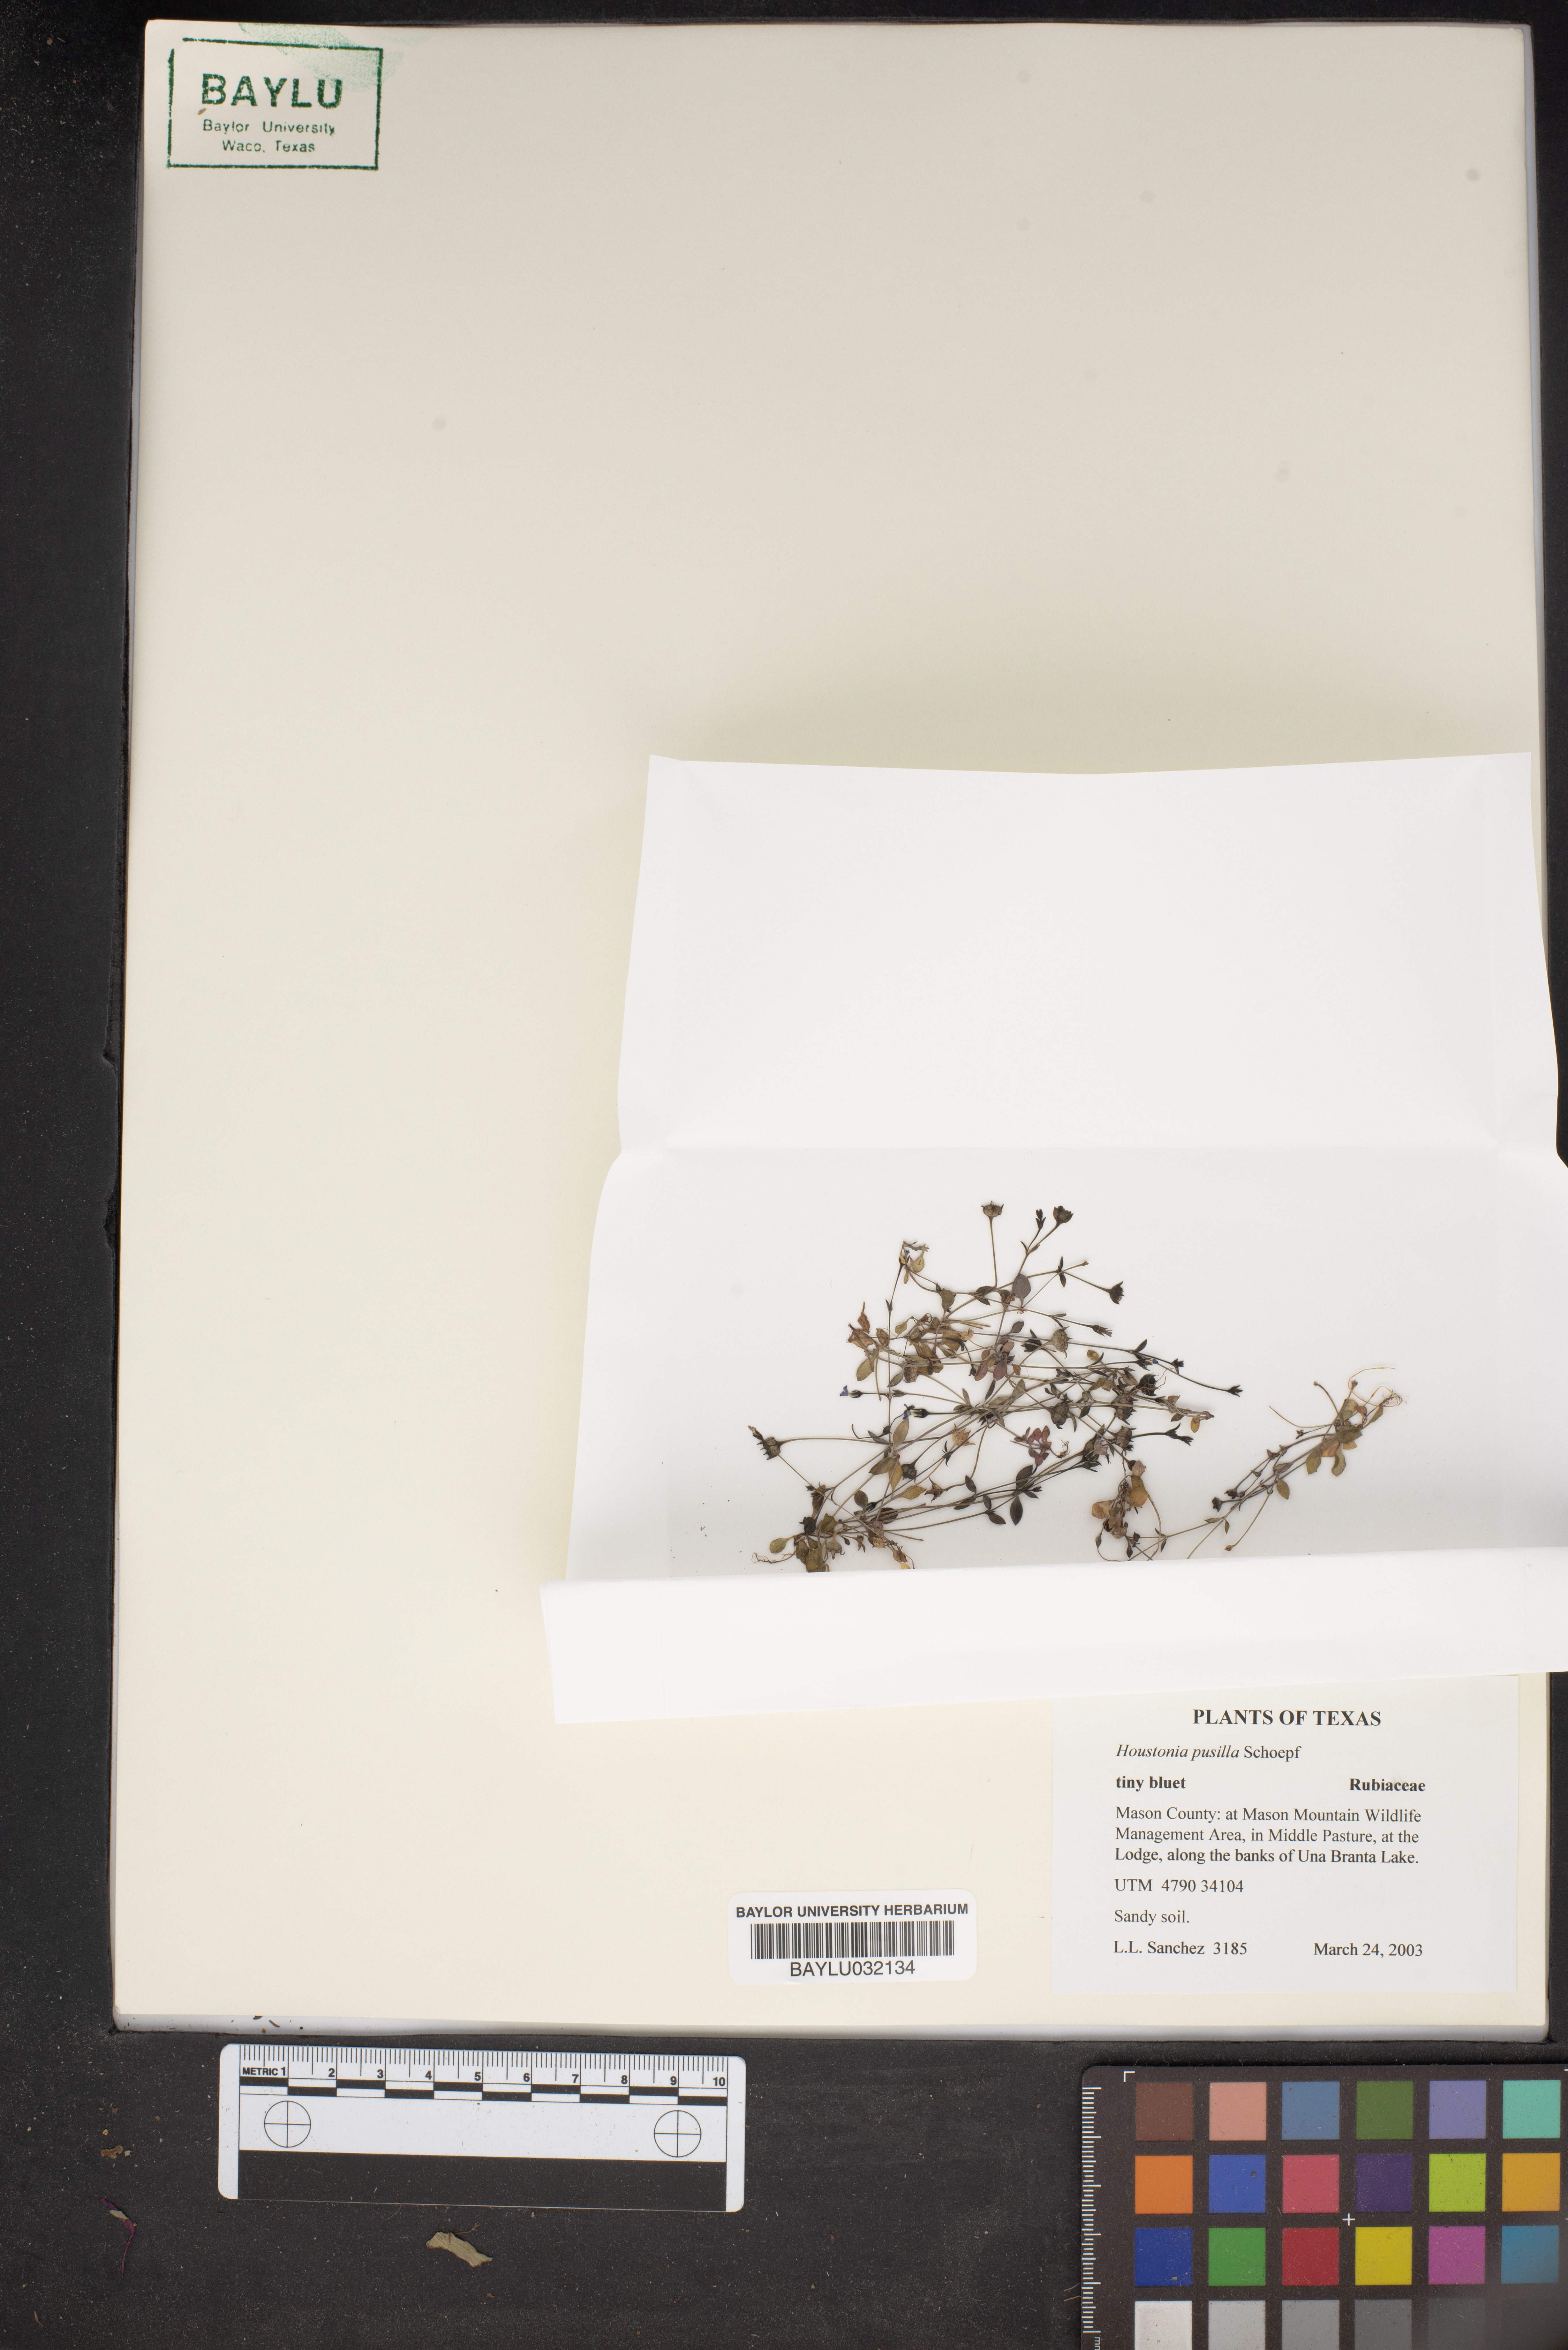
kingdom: Plantae
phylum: Tracheophyta
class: Magnoliopsida
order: Gentianales
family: Rubiaceae
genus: Houstonia
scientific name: Houstonia pusilla
